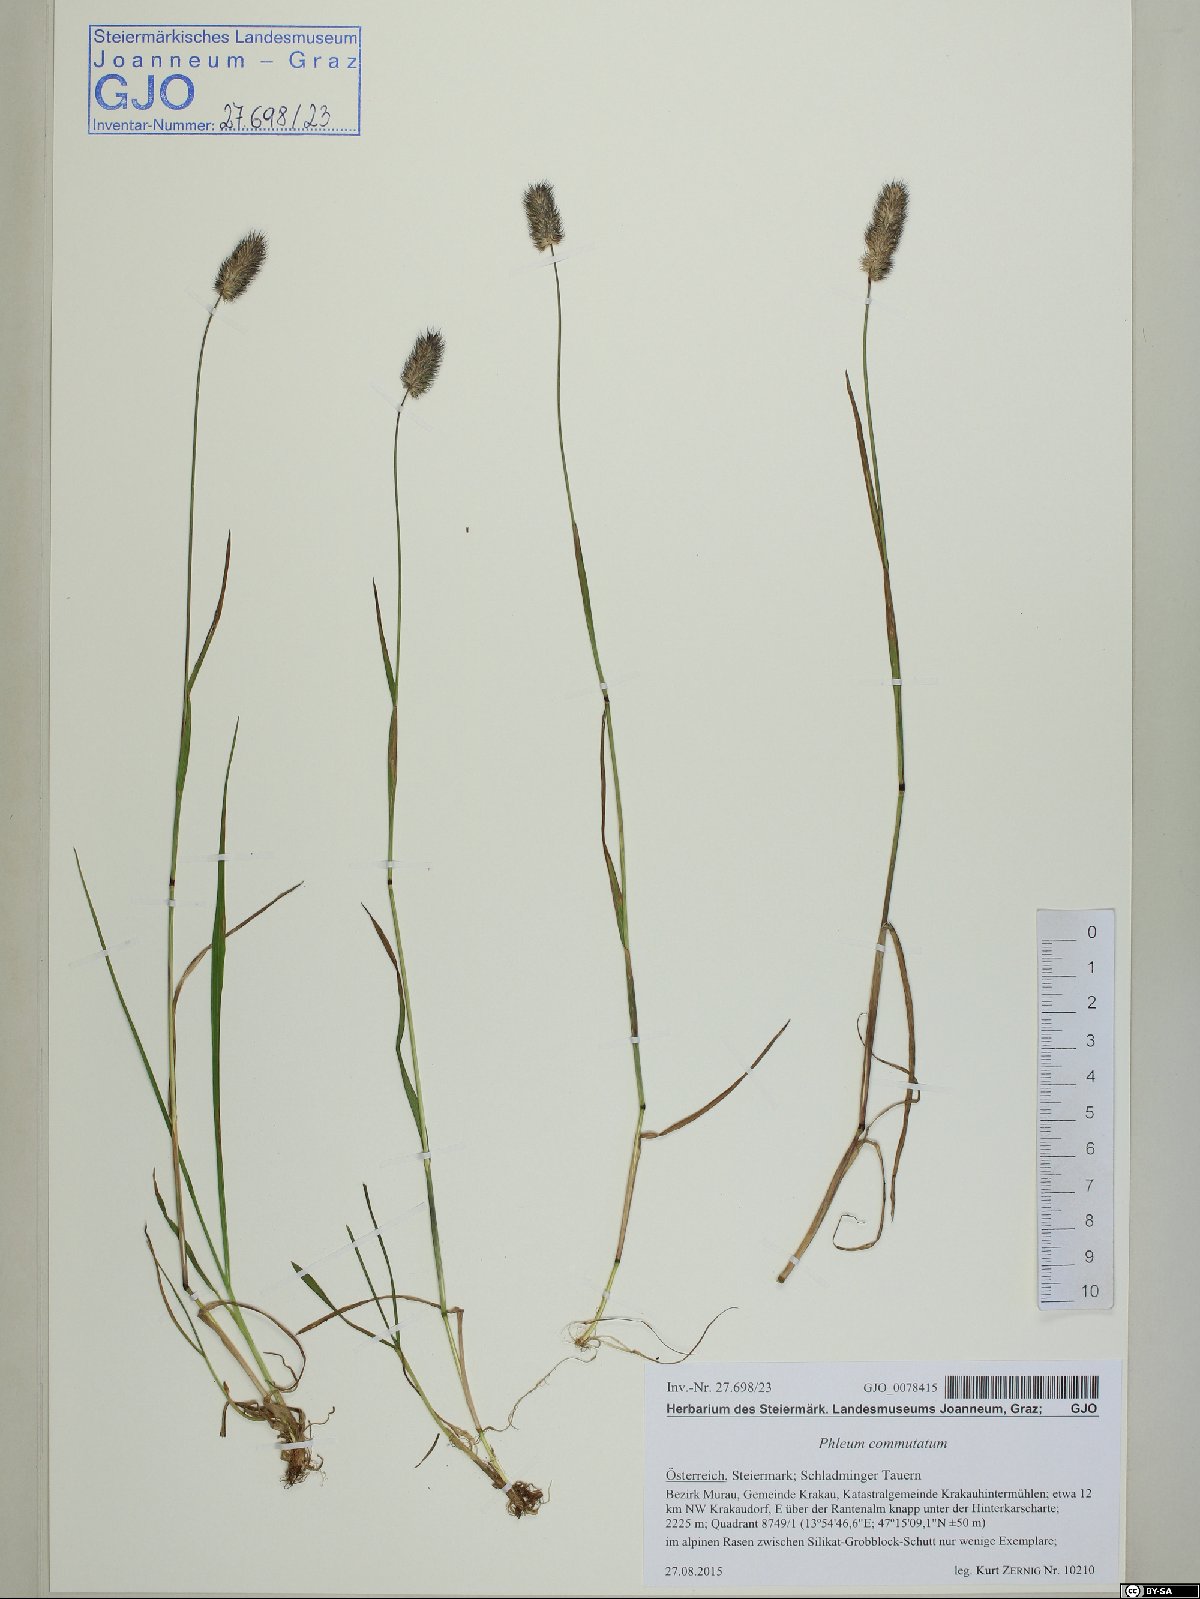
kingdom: Plantae
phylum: Tracheophyta
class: Liliopsida
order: Poales
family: Poaceae
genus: Phleum
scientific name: Phleum alpinum
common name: Alpine cat's-tail
